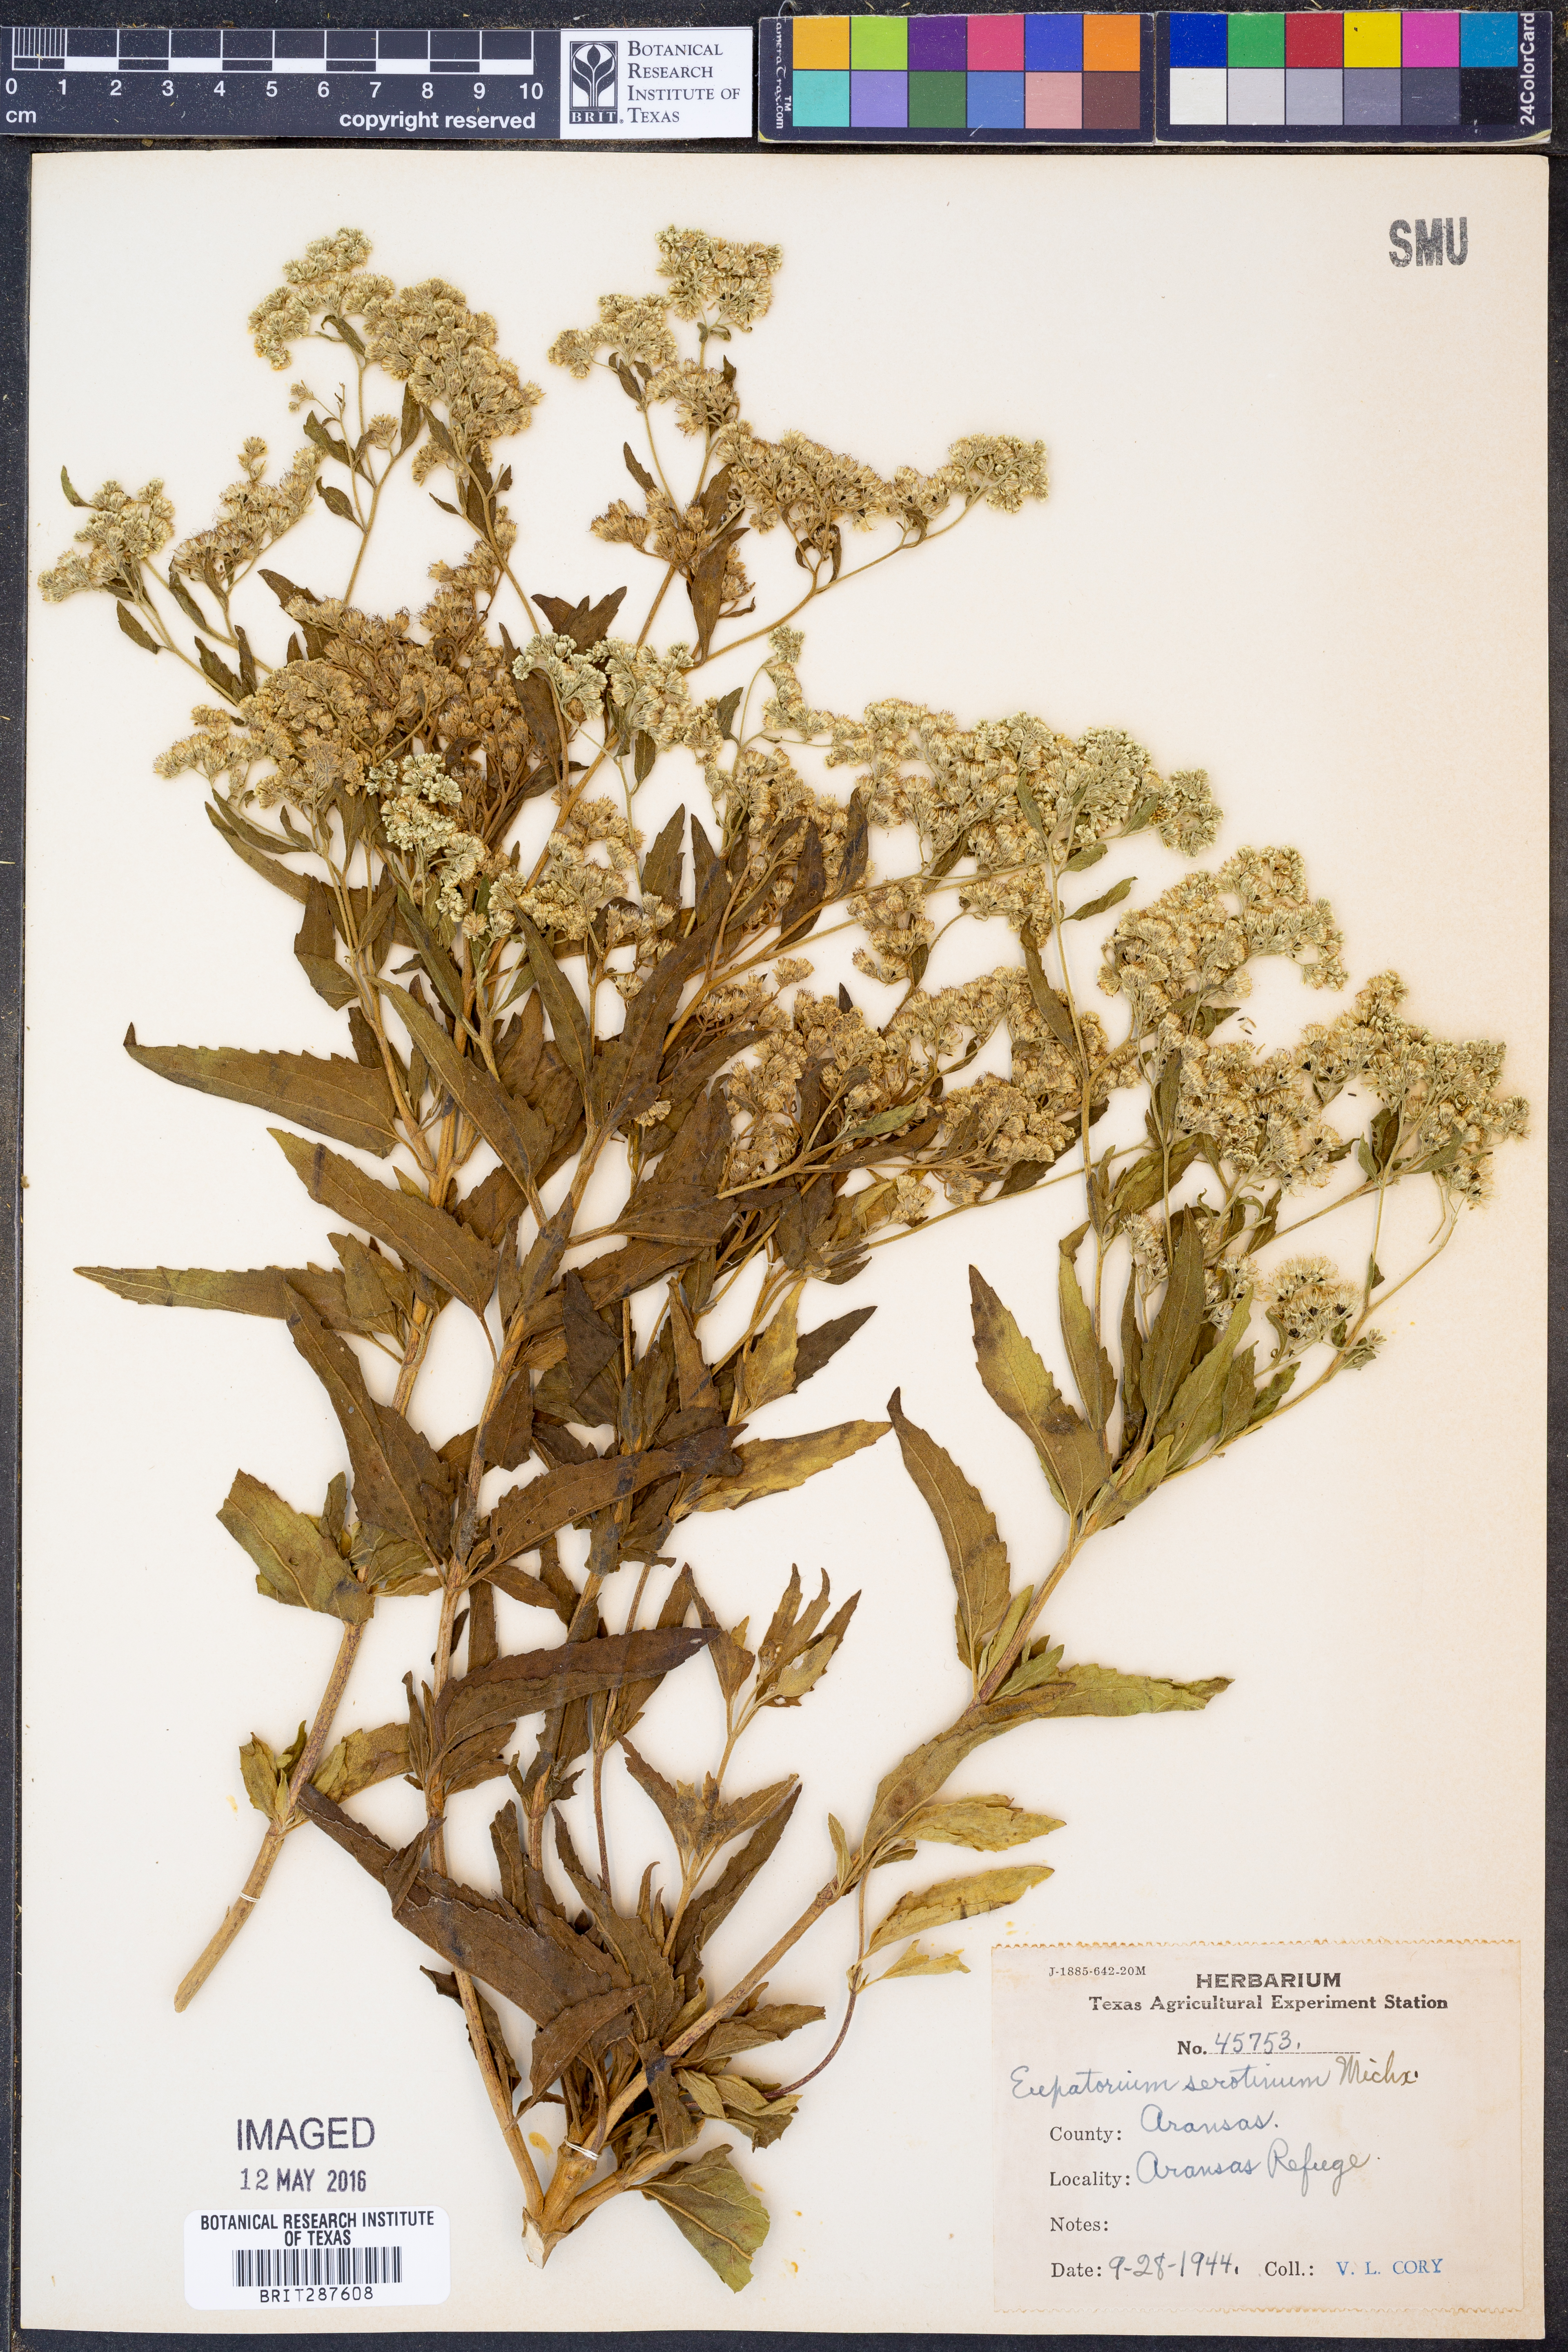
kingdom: Plantae
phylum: Tracheophyta
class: Magnoliopsida
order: Asterales
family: Asteraceae
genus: Eupatorium
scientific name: Eupatorium serotinum
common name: Late boneset
